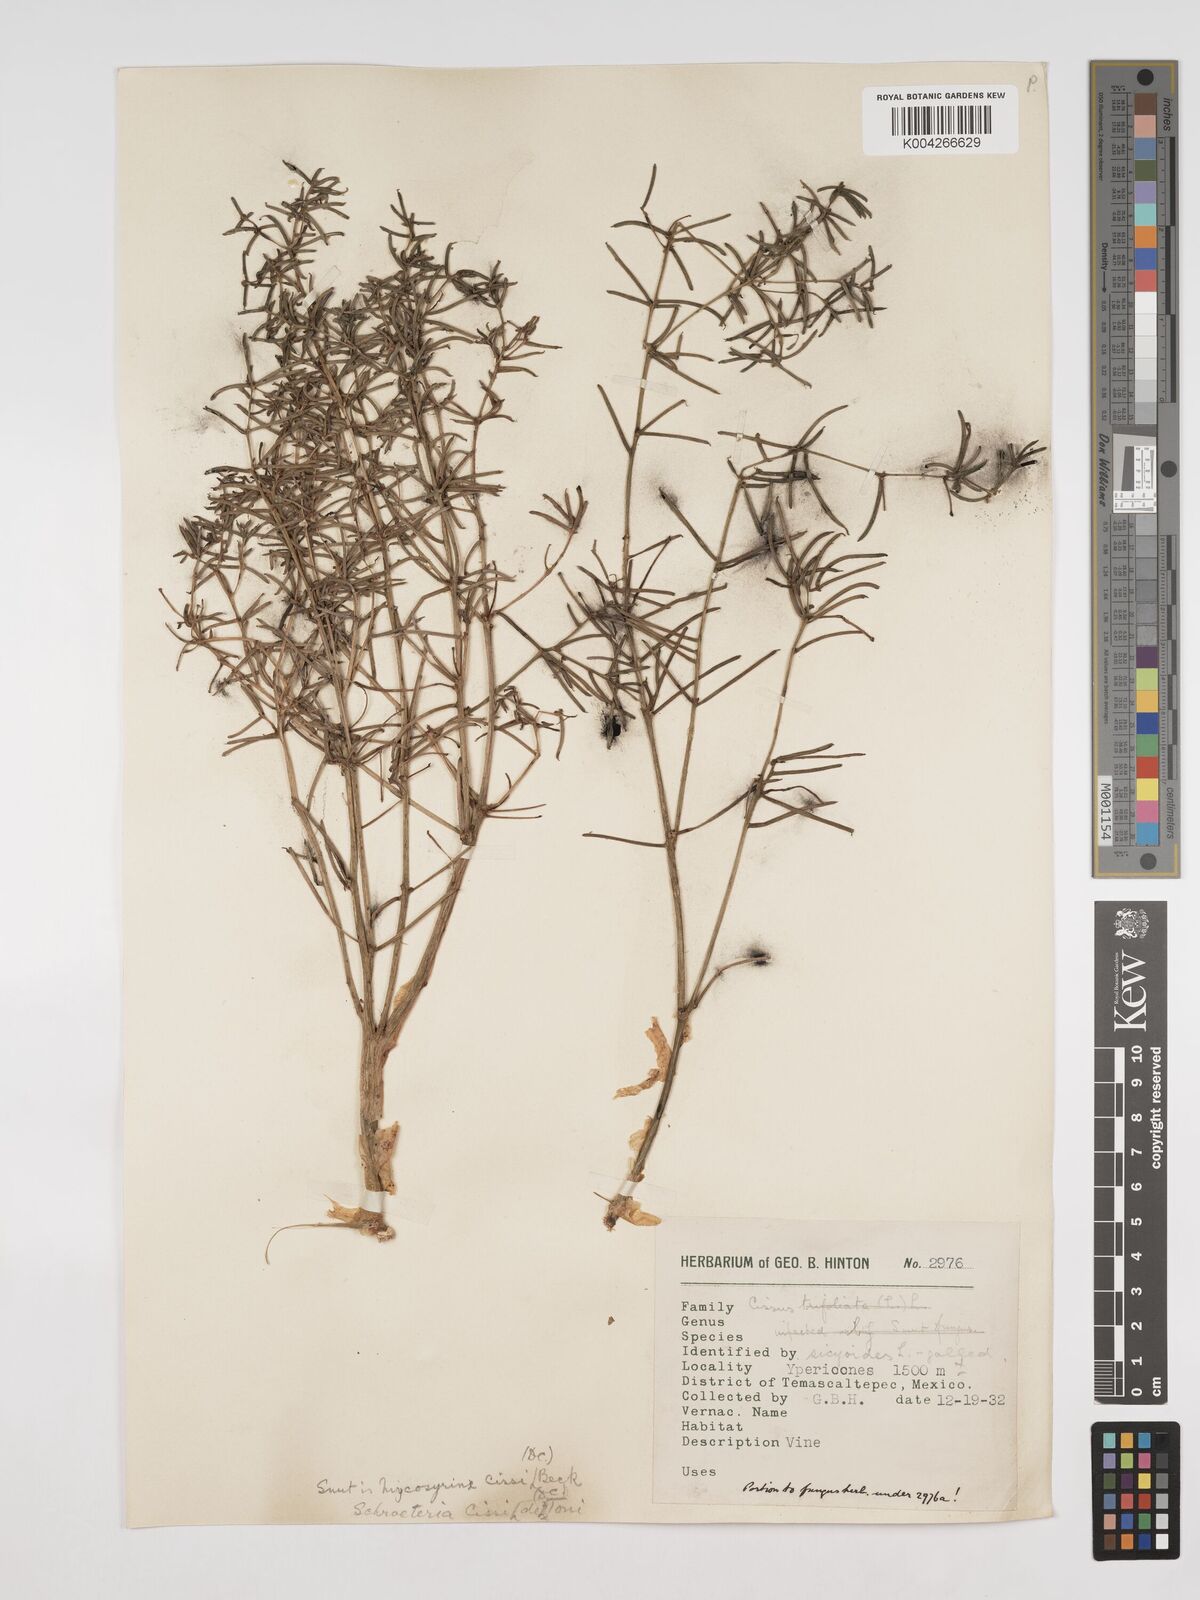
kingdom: Plantae
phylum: Tracheophyta
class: Magnoliopsida
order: Vitales
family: Vitaceae
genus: Cissus
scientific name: Cissus
